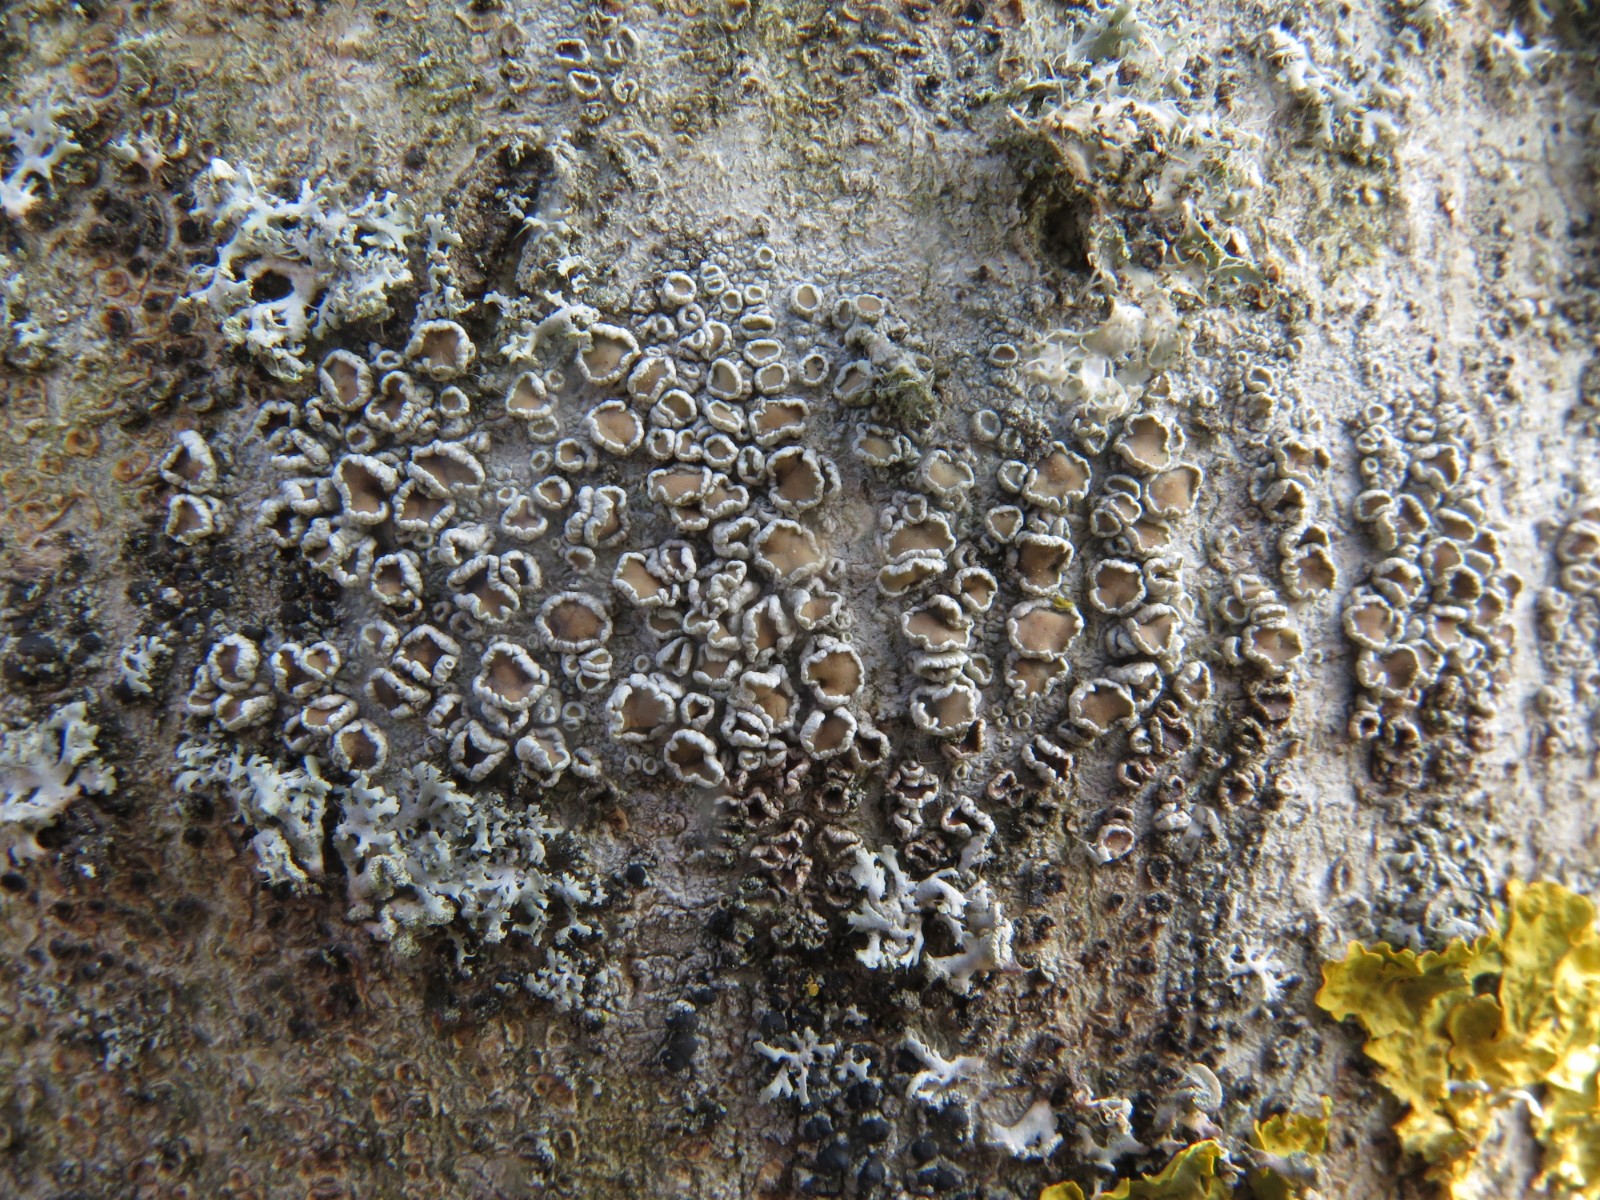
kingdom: Fungi
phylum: Ascomycota
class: Lecanoromycetes
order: Lecanorales
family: Lecanoraceae
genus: Lecanora
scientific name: Lecanora chlarotera
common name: brun kantskivelav
